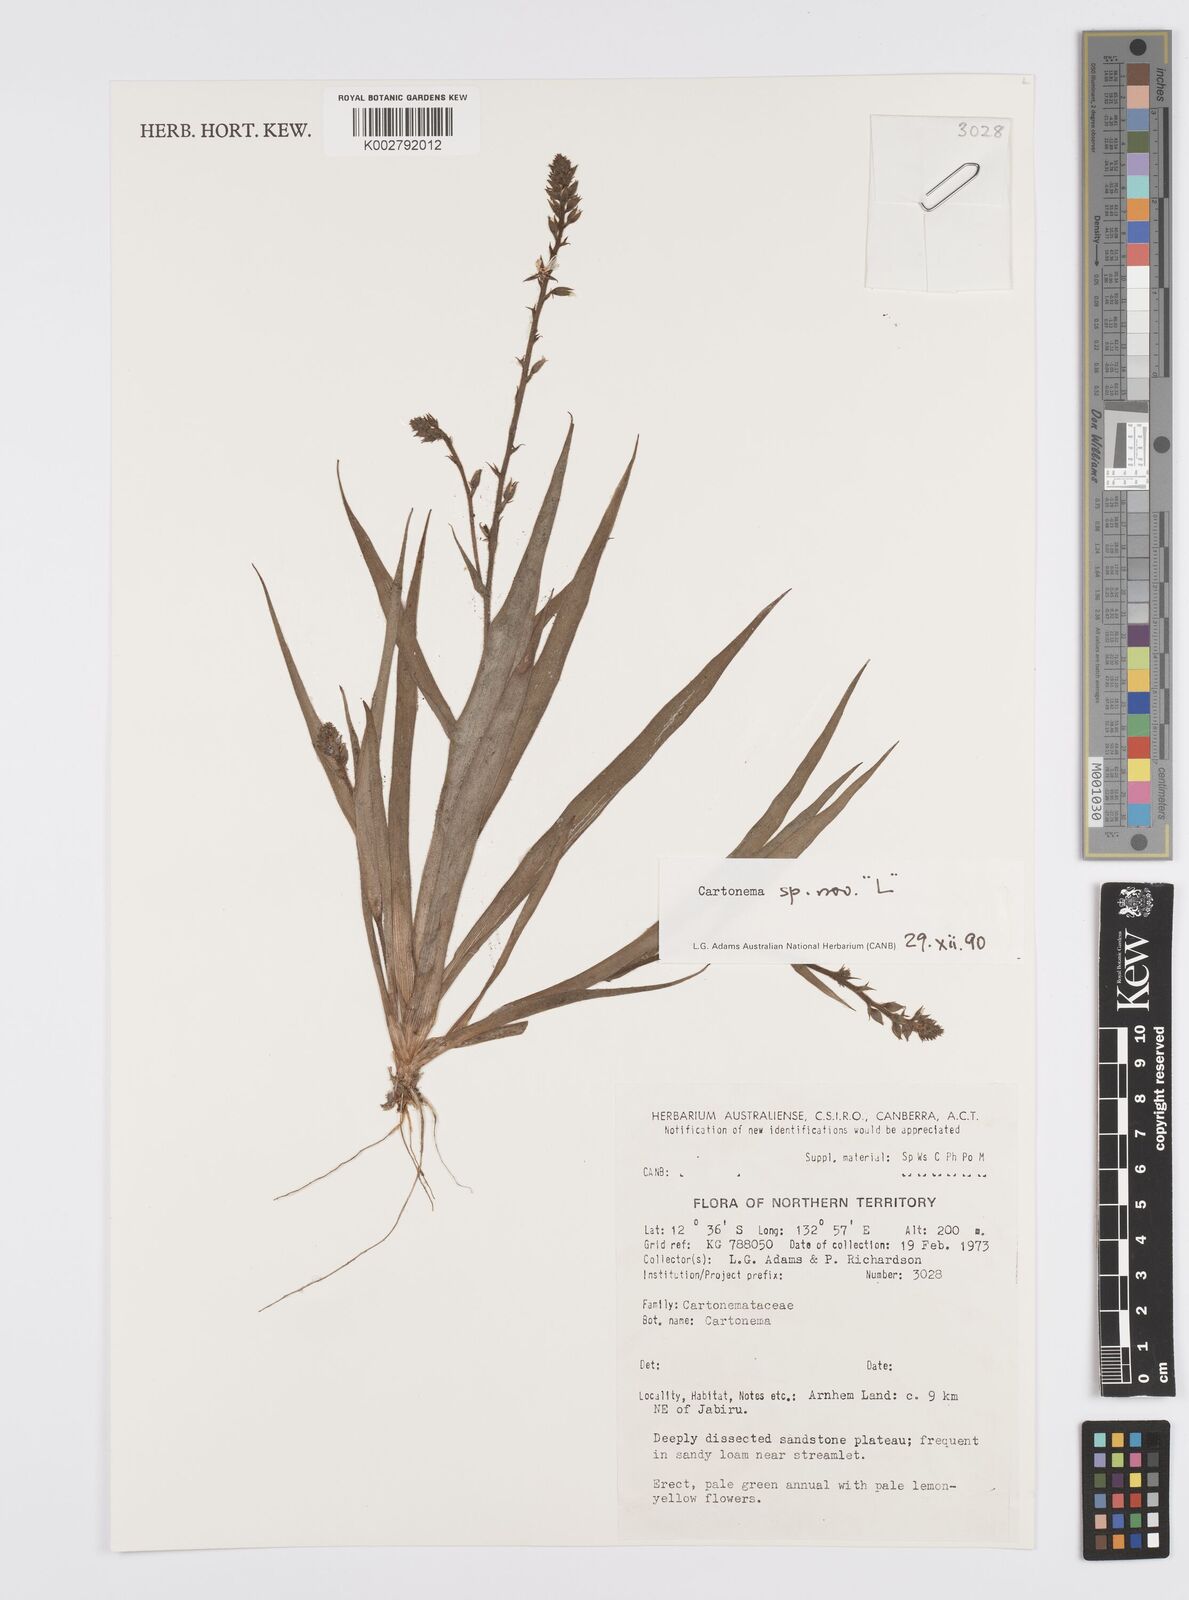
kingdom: Plantae
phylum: Tracheophyta
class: Liliopsida
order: Commelinales
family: Commelinaceae
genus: Cartonema
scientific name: Cartonema
